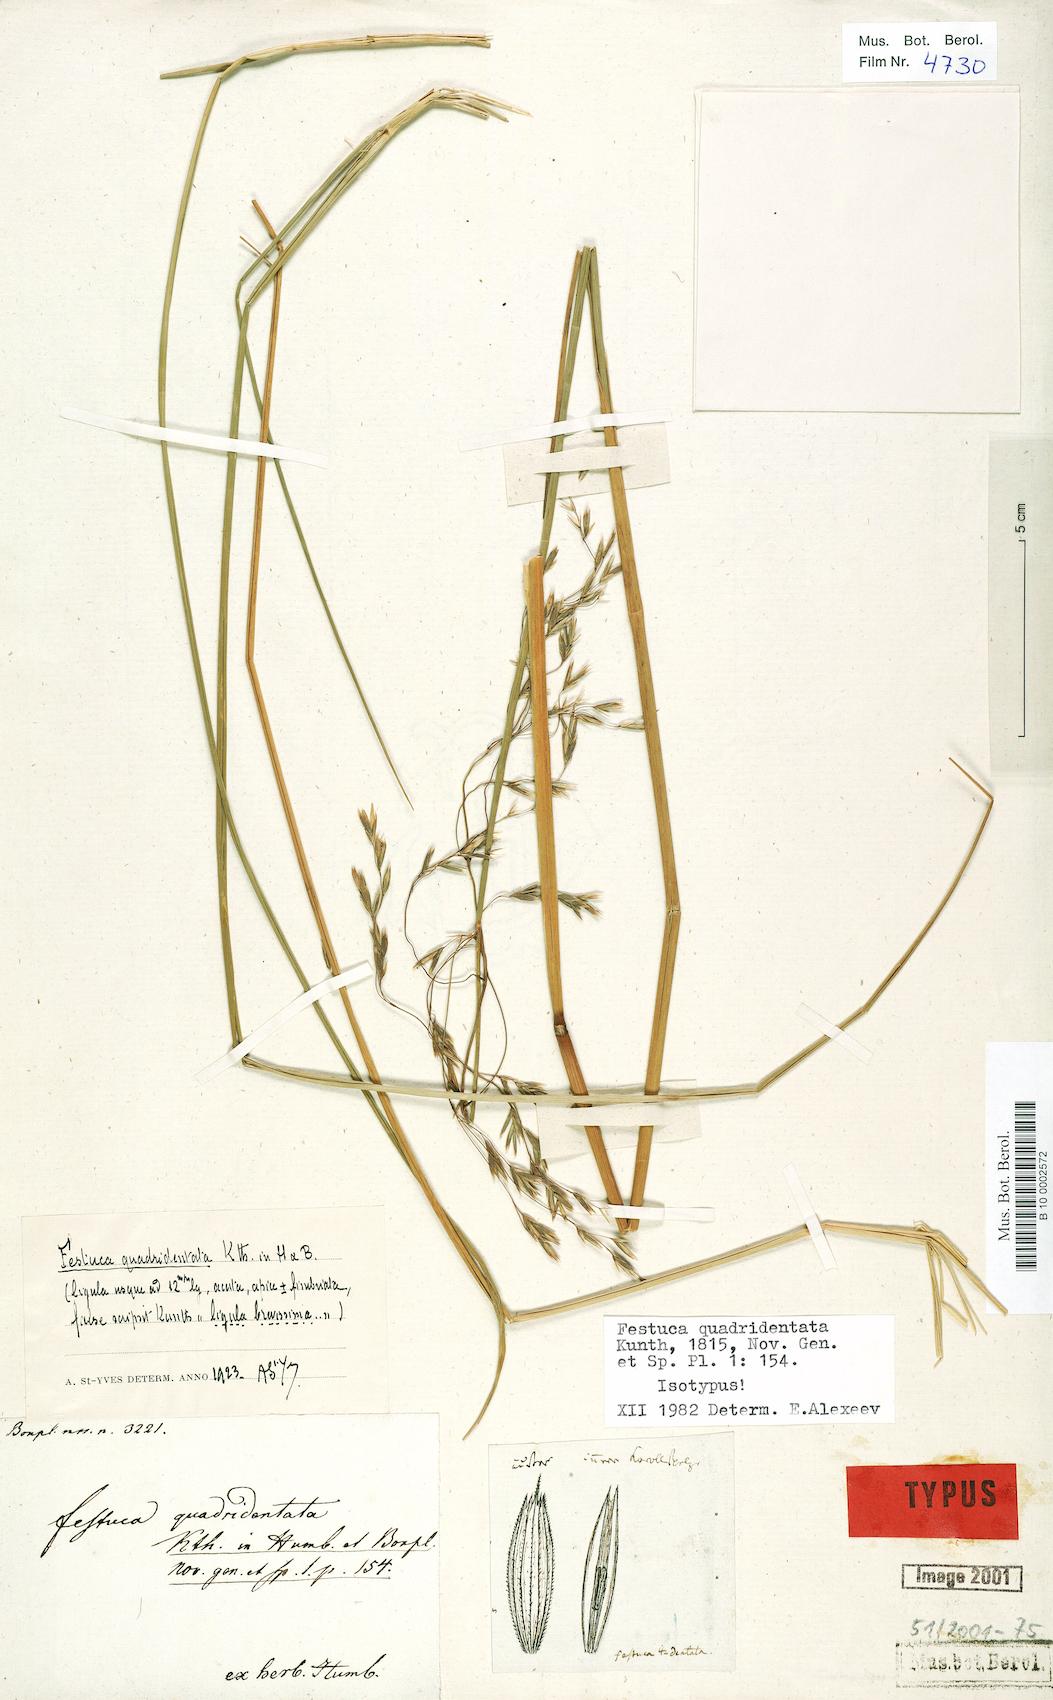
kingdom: Plantae
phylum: Tracheophyta
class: Liliopsida
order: Poales
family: Poaceae
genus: Festuca
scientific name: Festuca quadridentata
